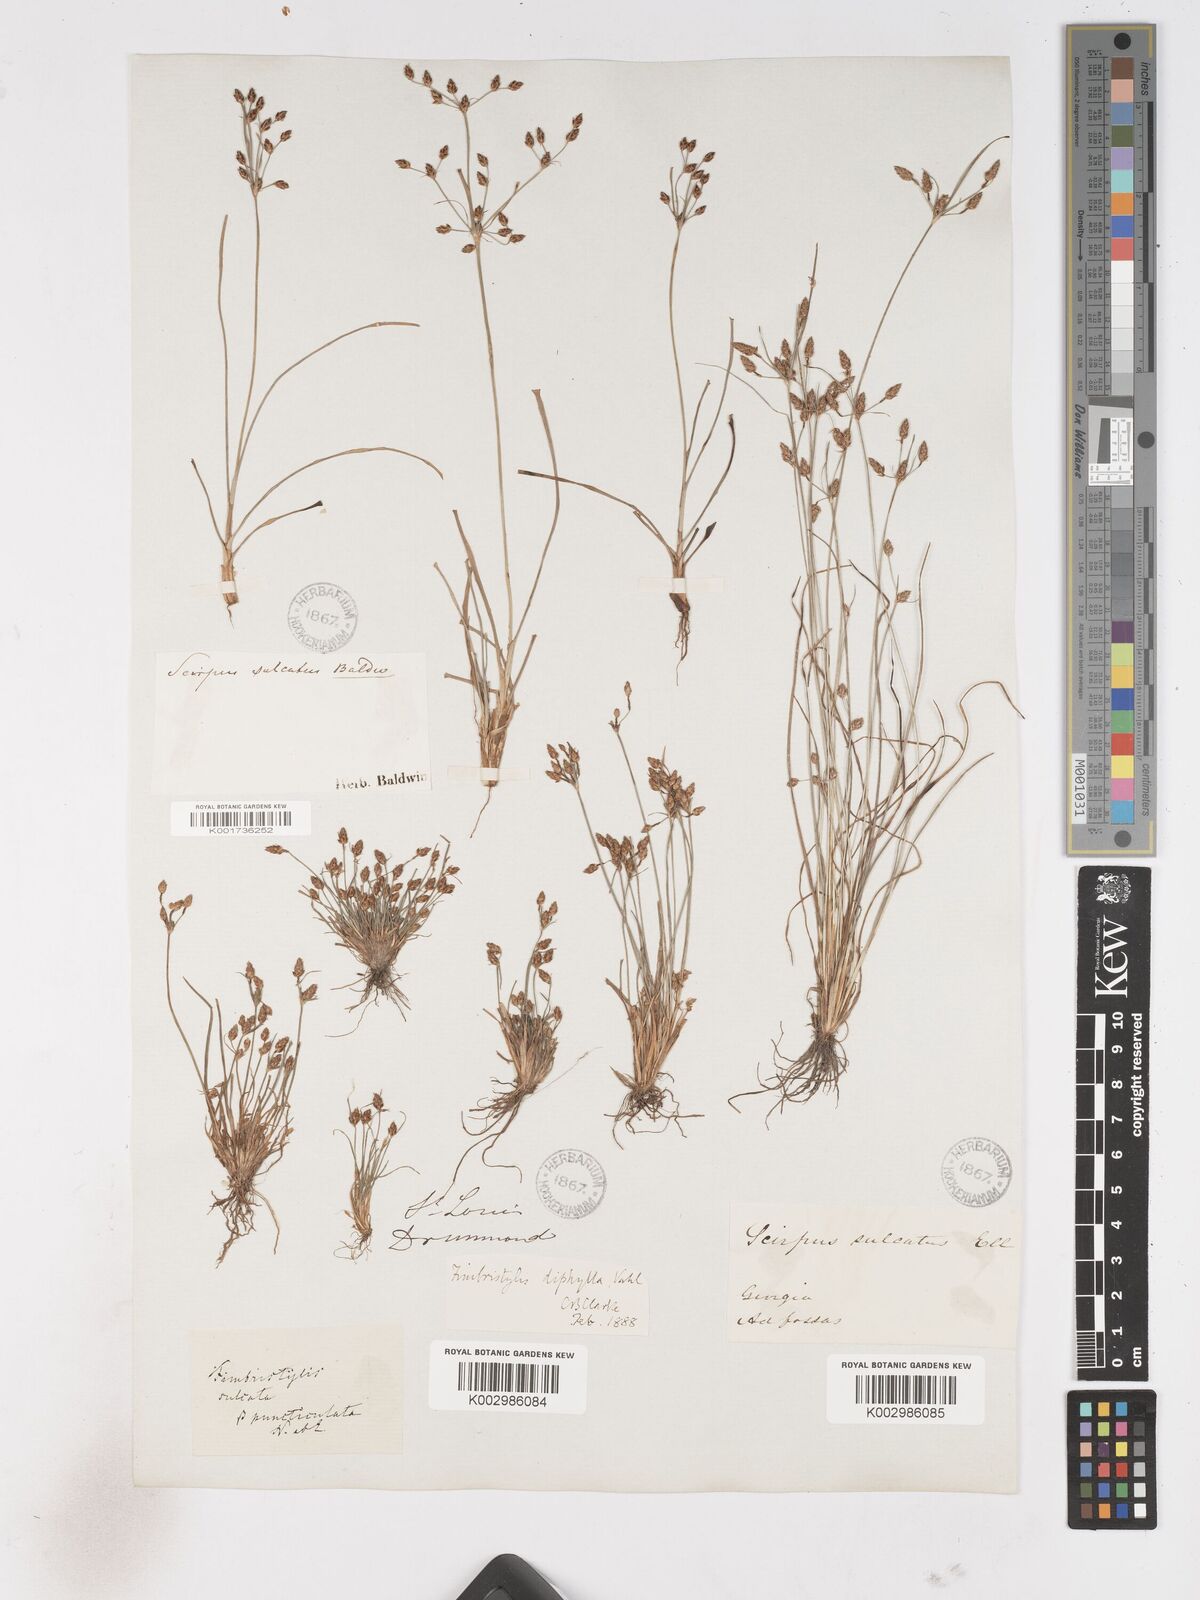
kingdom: Plantae
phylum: Tracheophyta
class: Liliopsida
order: Poales
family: Cyperaceae
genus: Fimbristylis
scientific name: Fimbristylis dichotoma
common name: Forked fimbry
